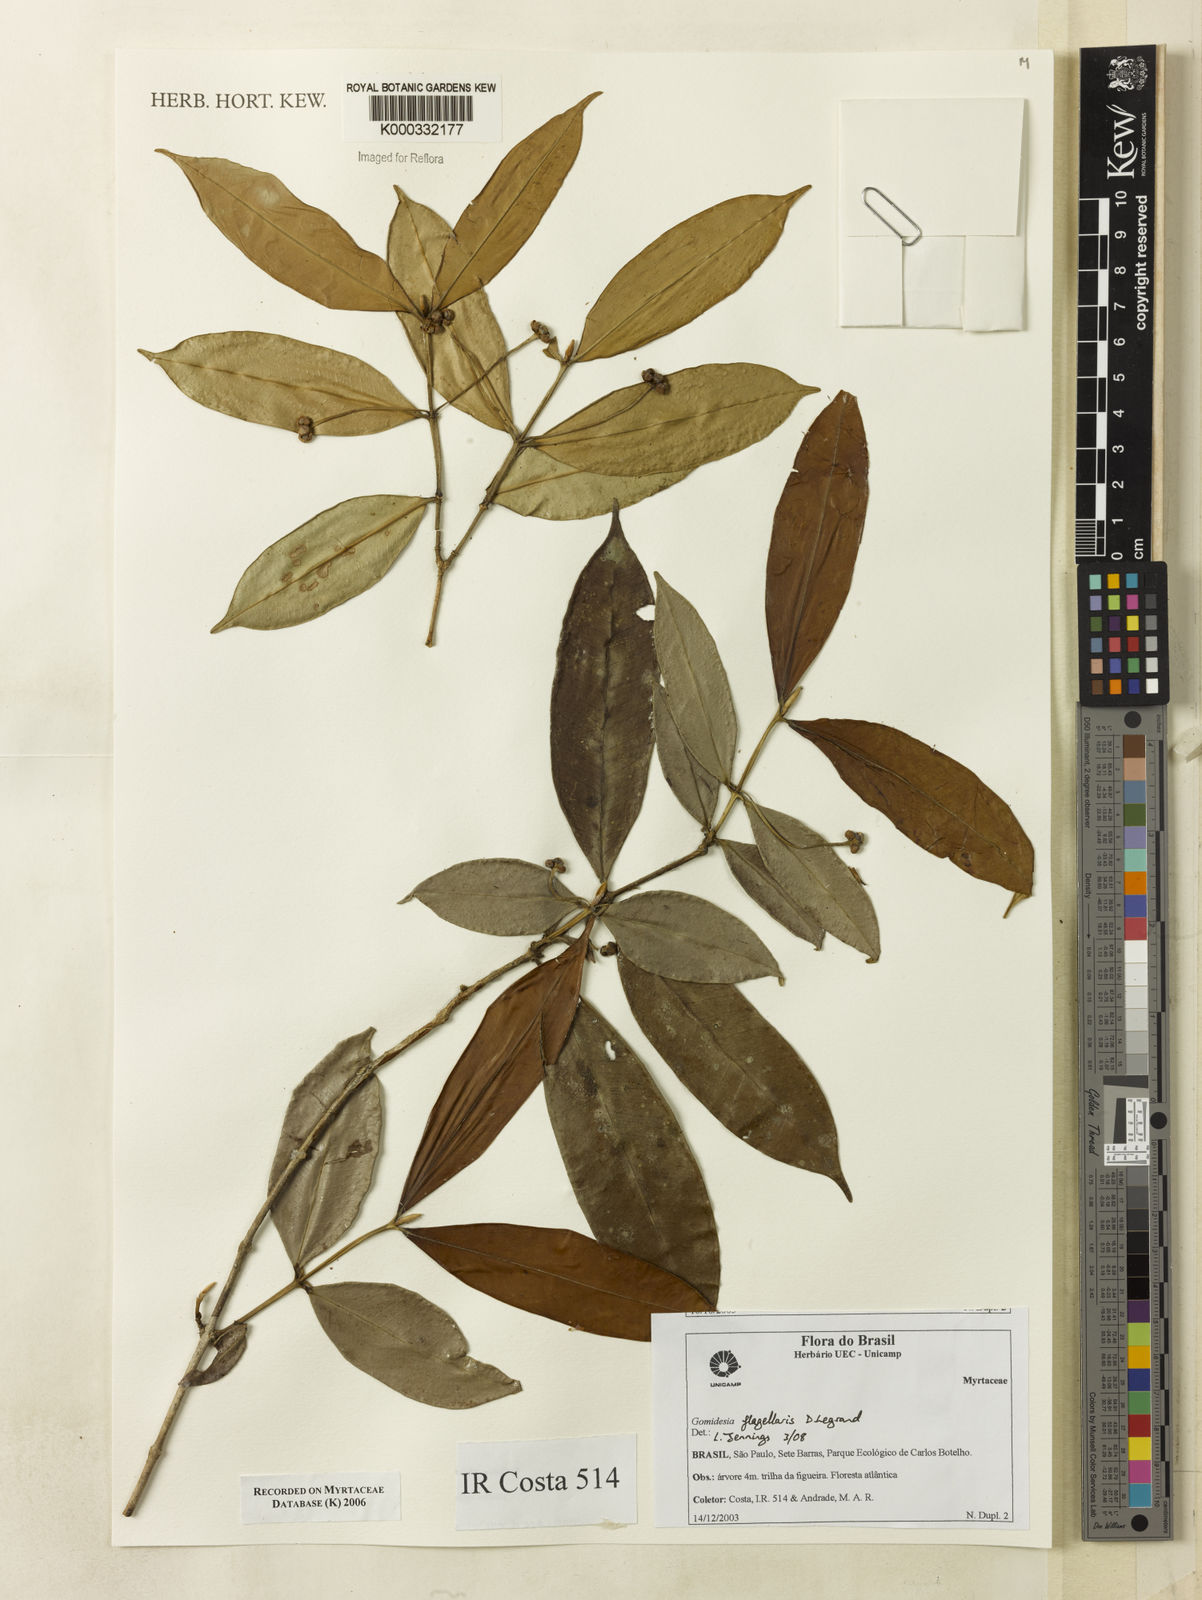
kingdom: Plantae
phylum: Tracheophyta
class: Magnoliopsida
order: Myrtales
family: Myrtaceae
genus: Myrcia
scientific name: Myrcia
